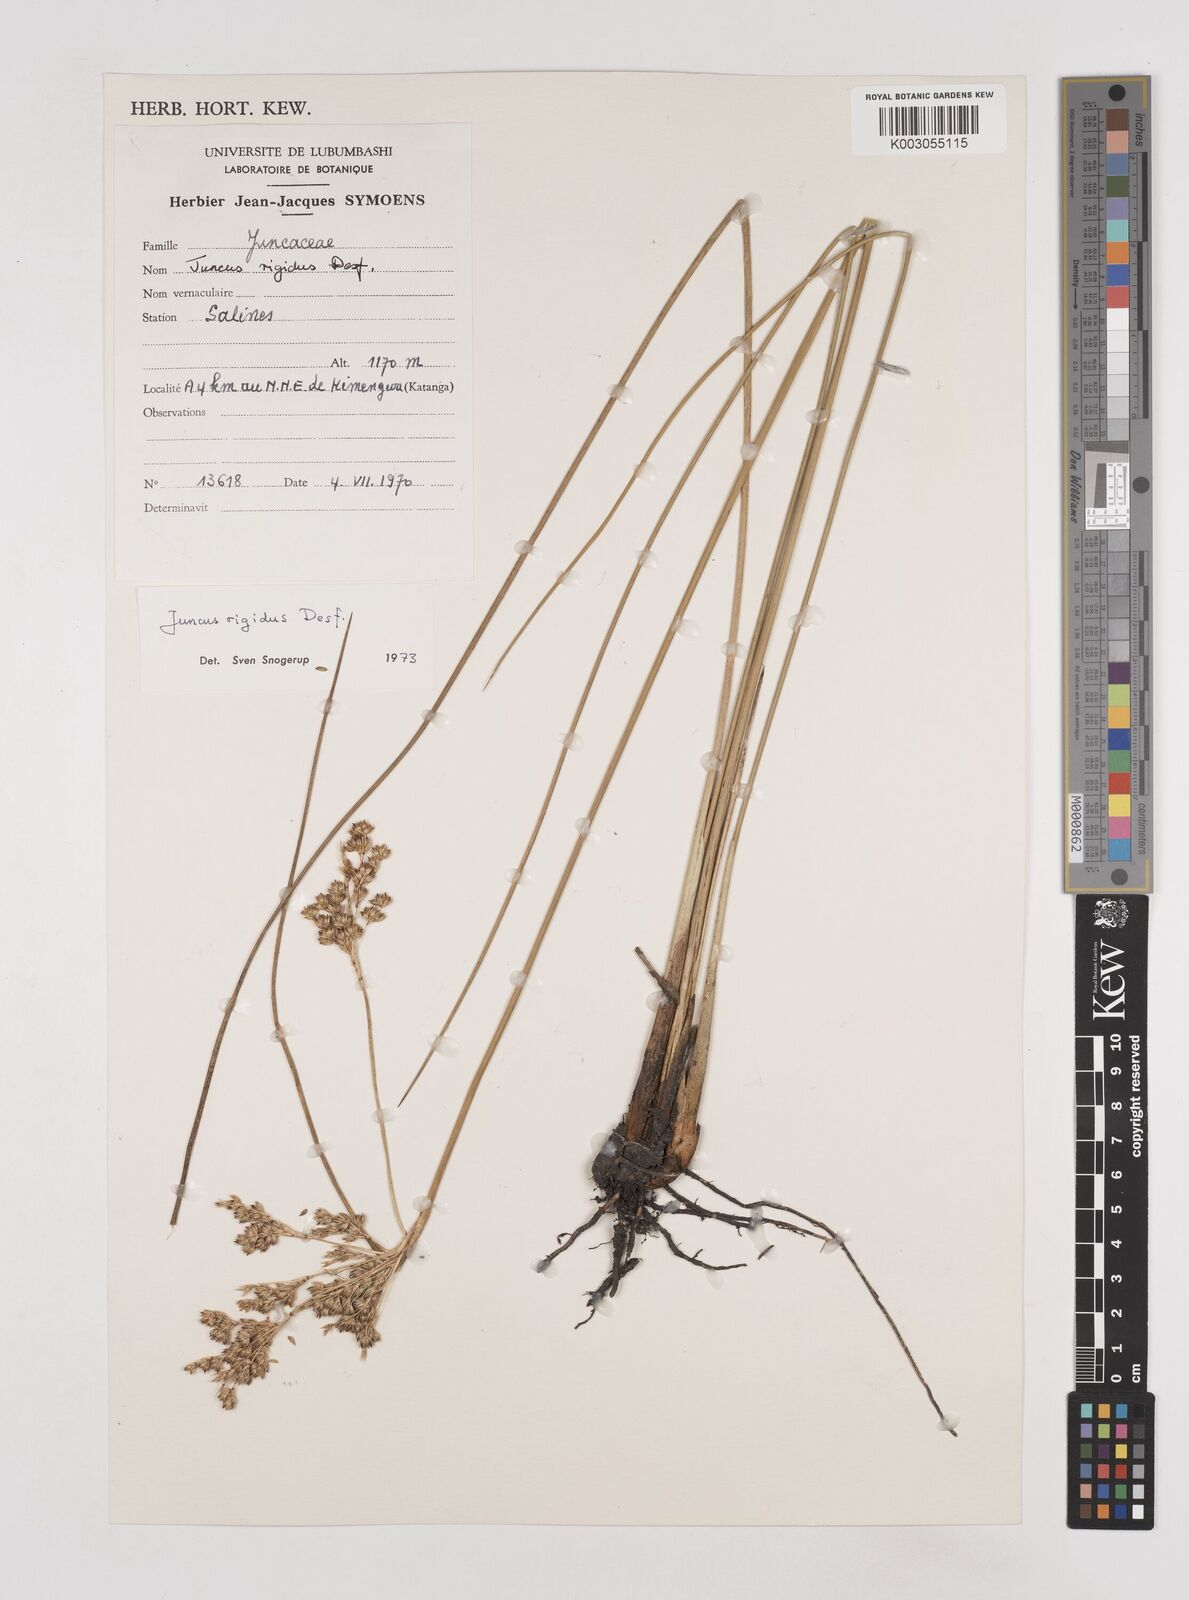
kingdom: Plantae
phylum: Tracheophyta
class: Liliopsida
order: Poales
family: Juncaceae
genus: Juncus
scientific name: Juncus rigidus
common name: Hard sea rush
